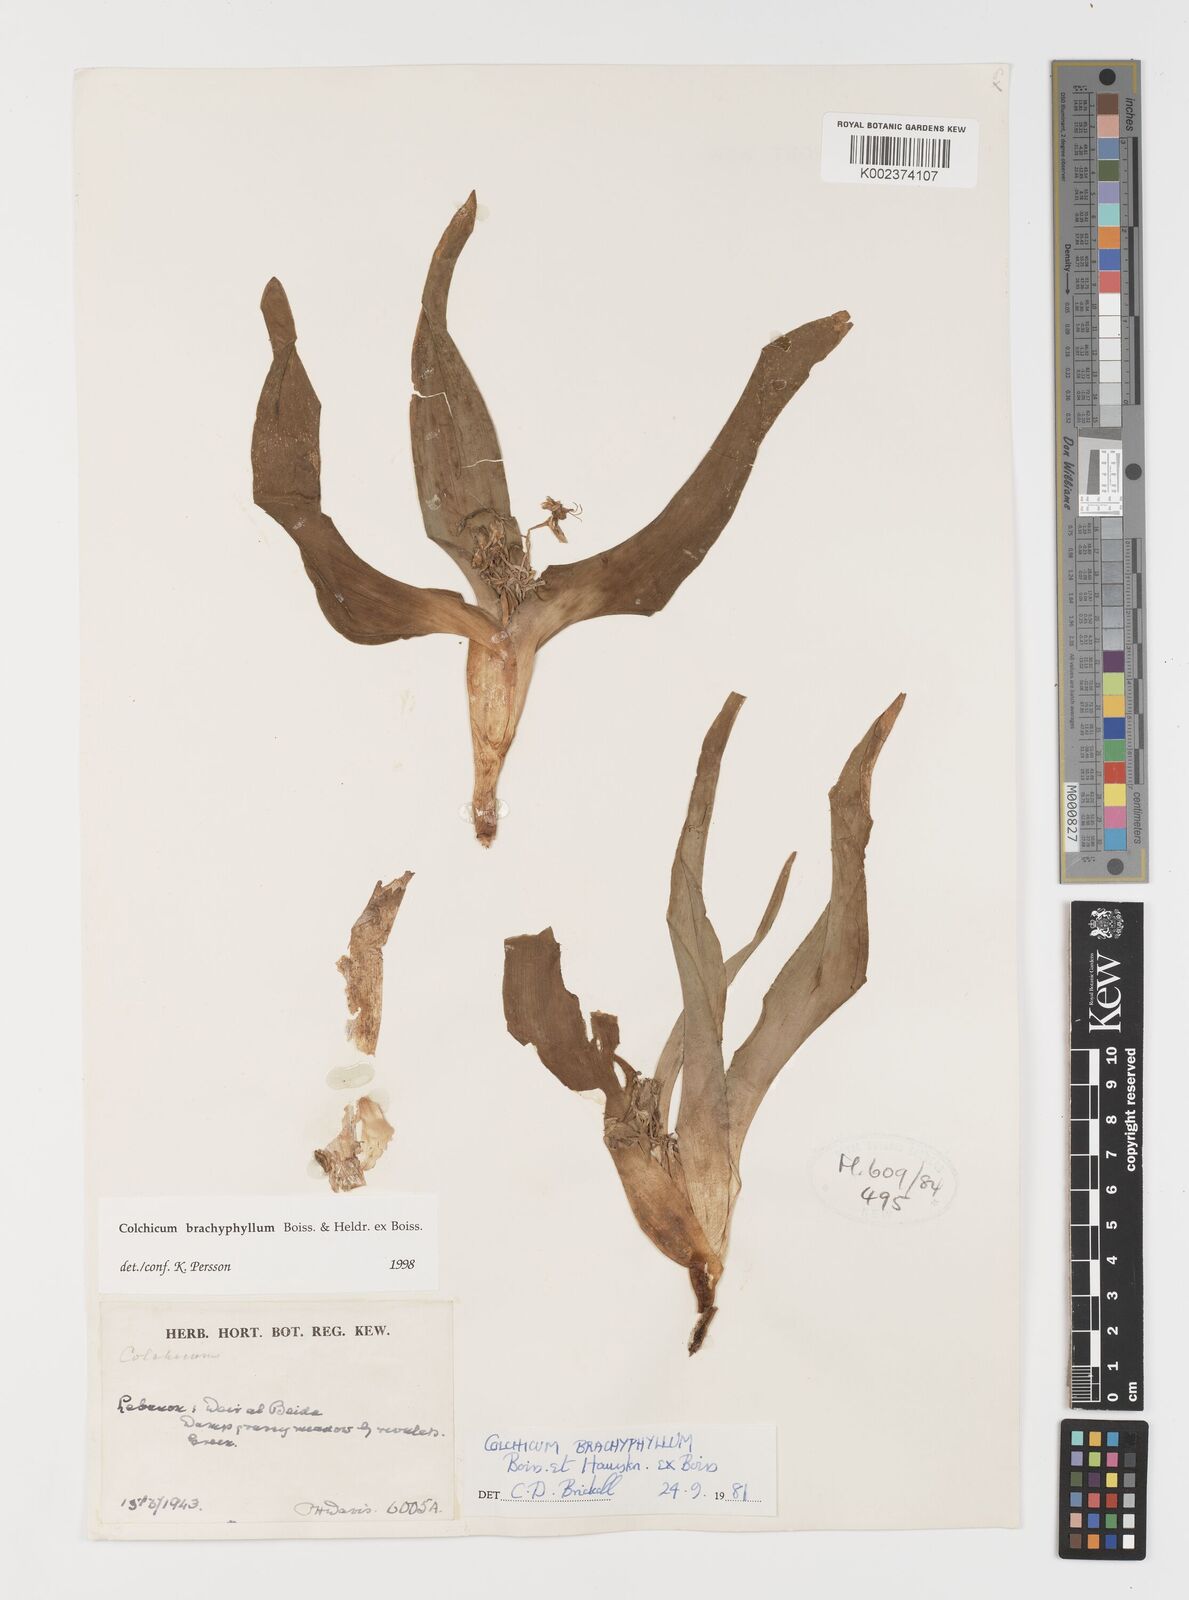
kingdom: Plantae
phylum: Tracheophyta
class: Liliopsida
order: Liliales
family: Colchicaceae
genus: Colchicum
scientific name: Colchicum szovitsii
